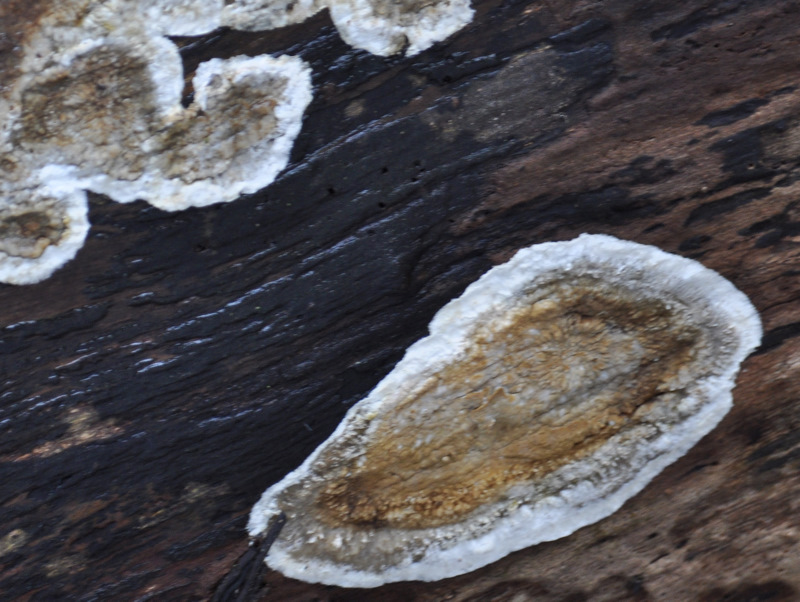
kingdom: Fungi
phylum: Basidiomycota
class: Agaricomycetes
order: Boletales
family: Coniophoraceae
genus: Coniophora
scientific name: Coniophora puteana
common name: gul tømmersvamp
